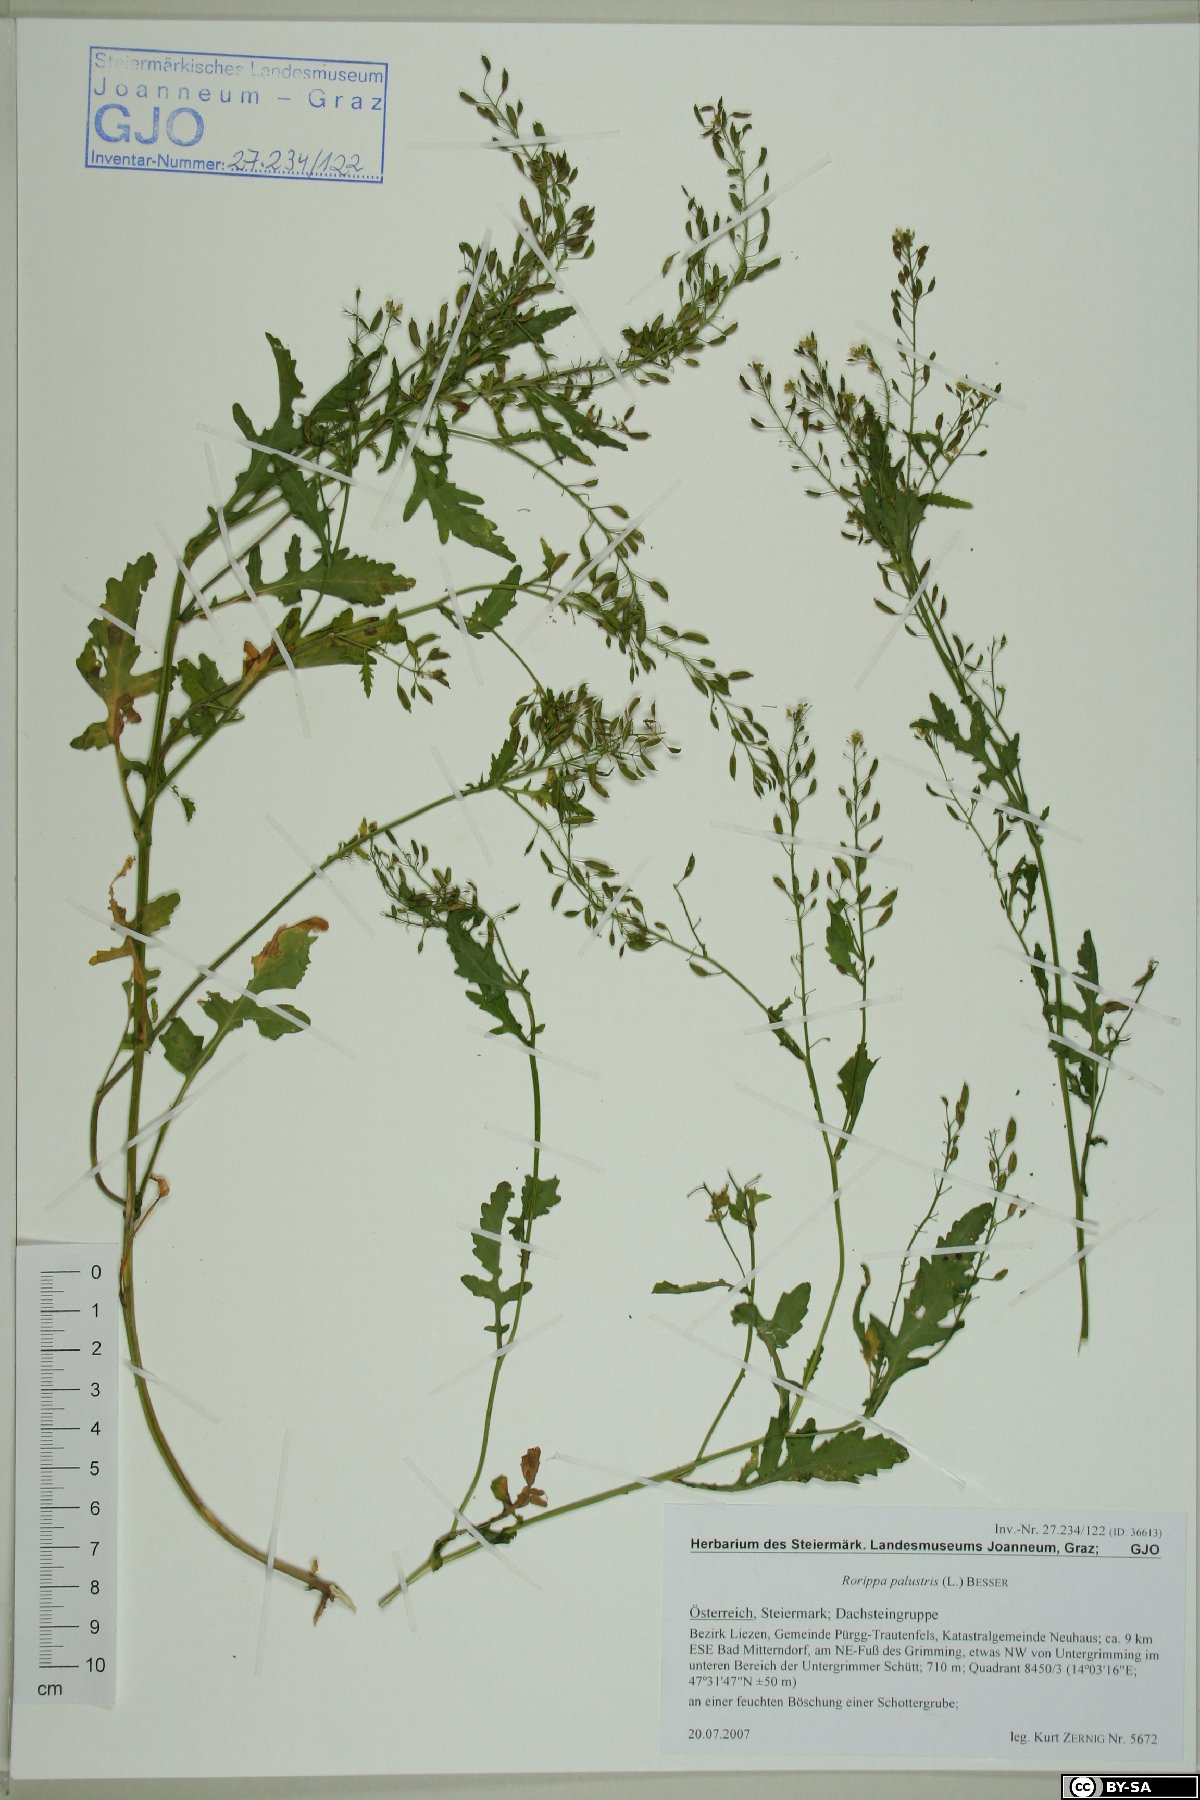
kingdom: Plantae
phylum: Tracheophyta
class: Magnoliopsida
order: Brassicales
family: Brassicaceae
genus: Rorippa
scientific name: Rorippa palustris
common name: Marsh yellow-cress
